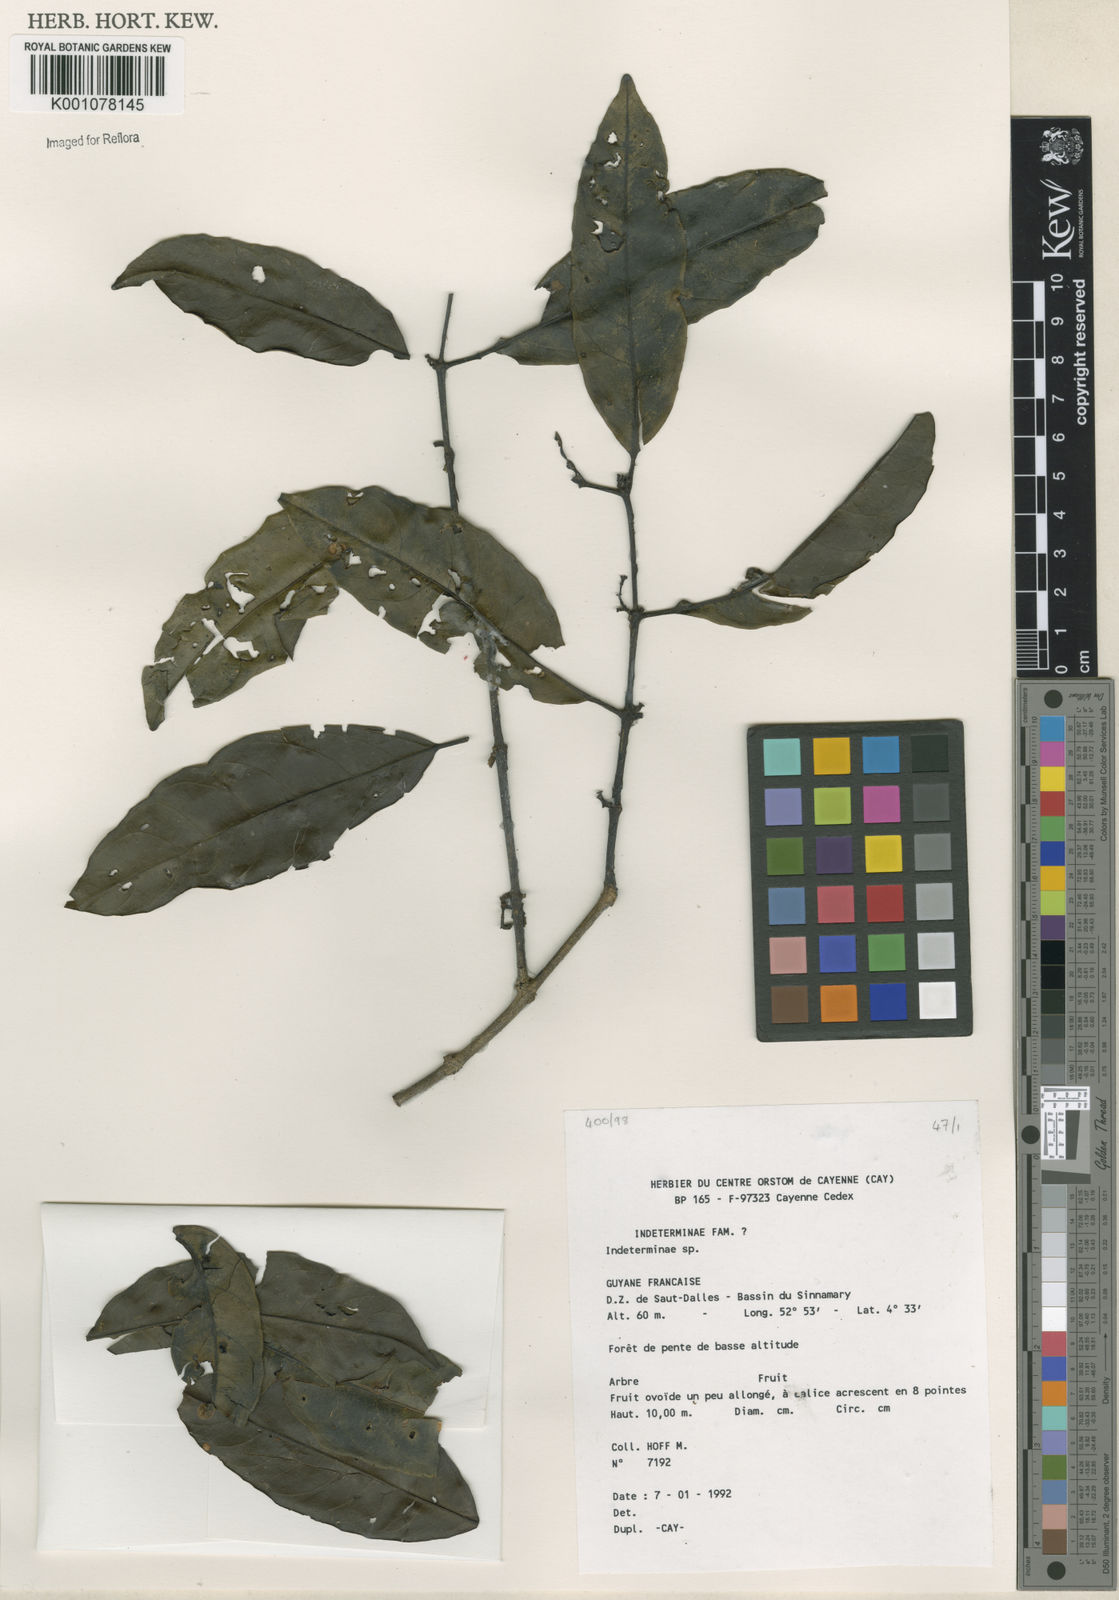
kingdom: Plantae
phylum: Tracheophyta
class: Magnoliopsida
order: Celastrales
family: Celastraceae
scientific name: Celastraceae
